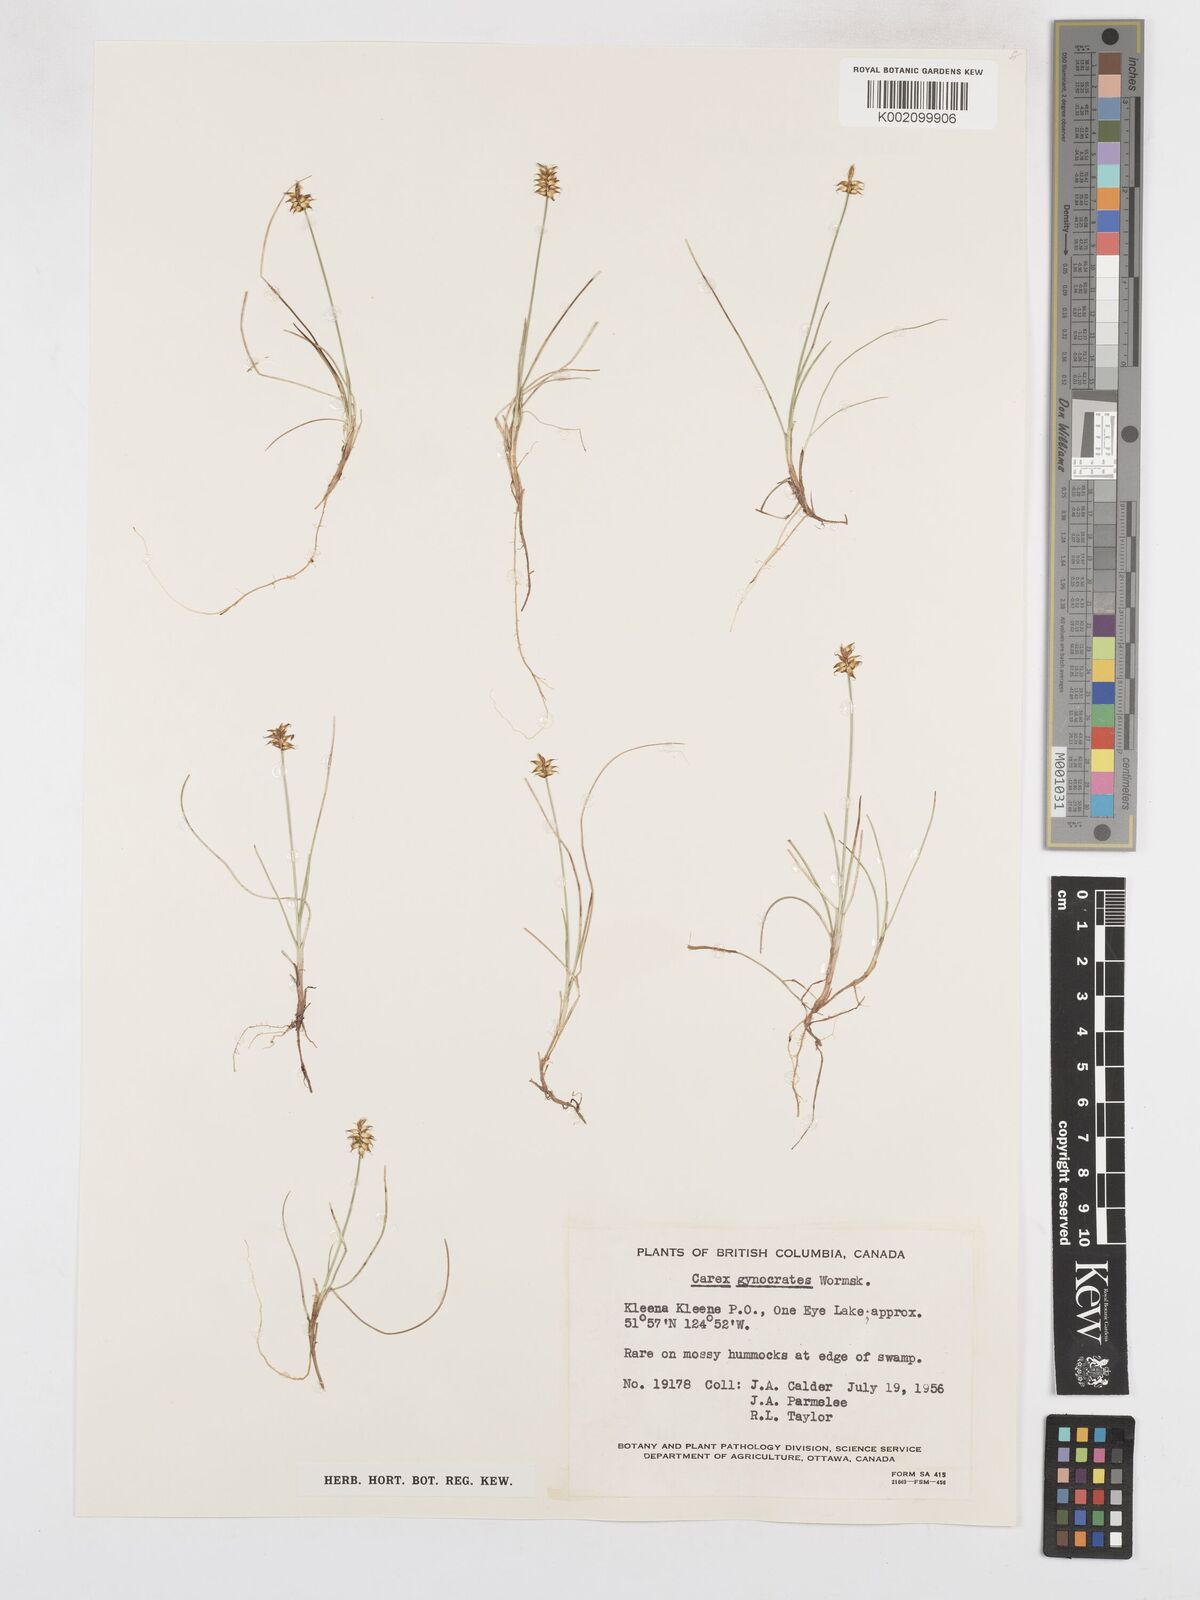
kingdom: Plantae
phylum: Tracheophyta
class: Liliopsida
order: Poales
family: Cyperaceae
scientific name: Cyperaceae
